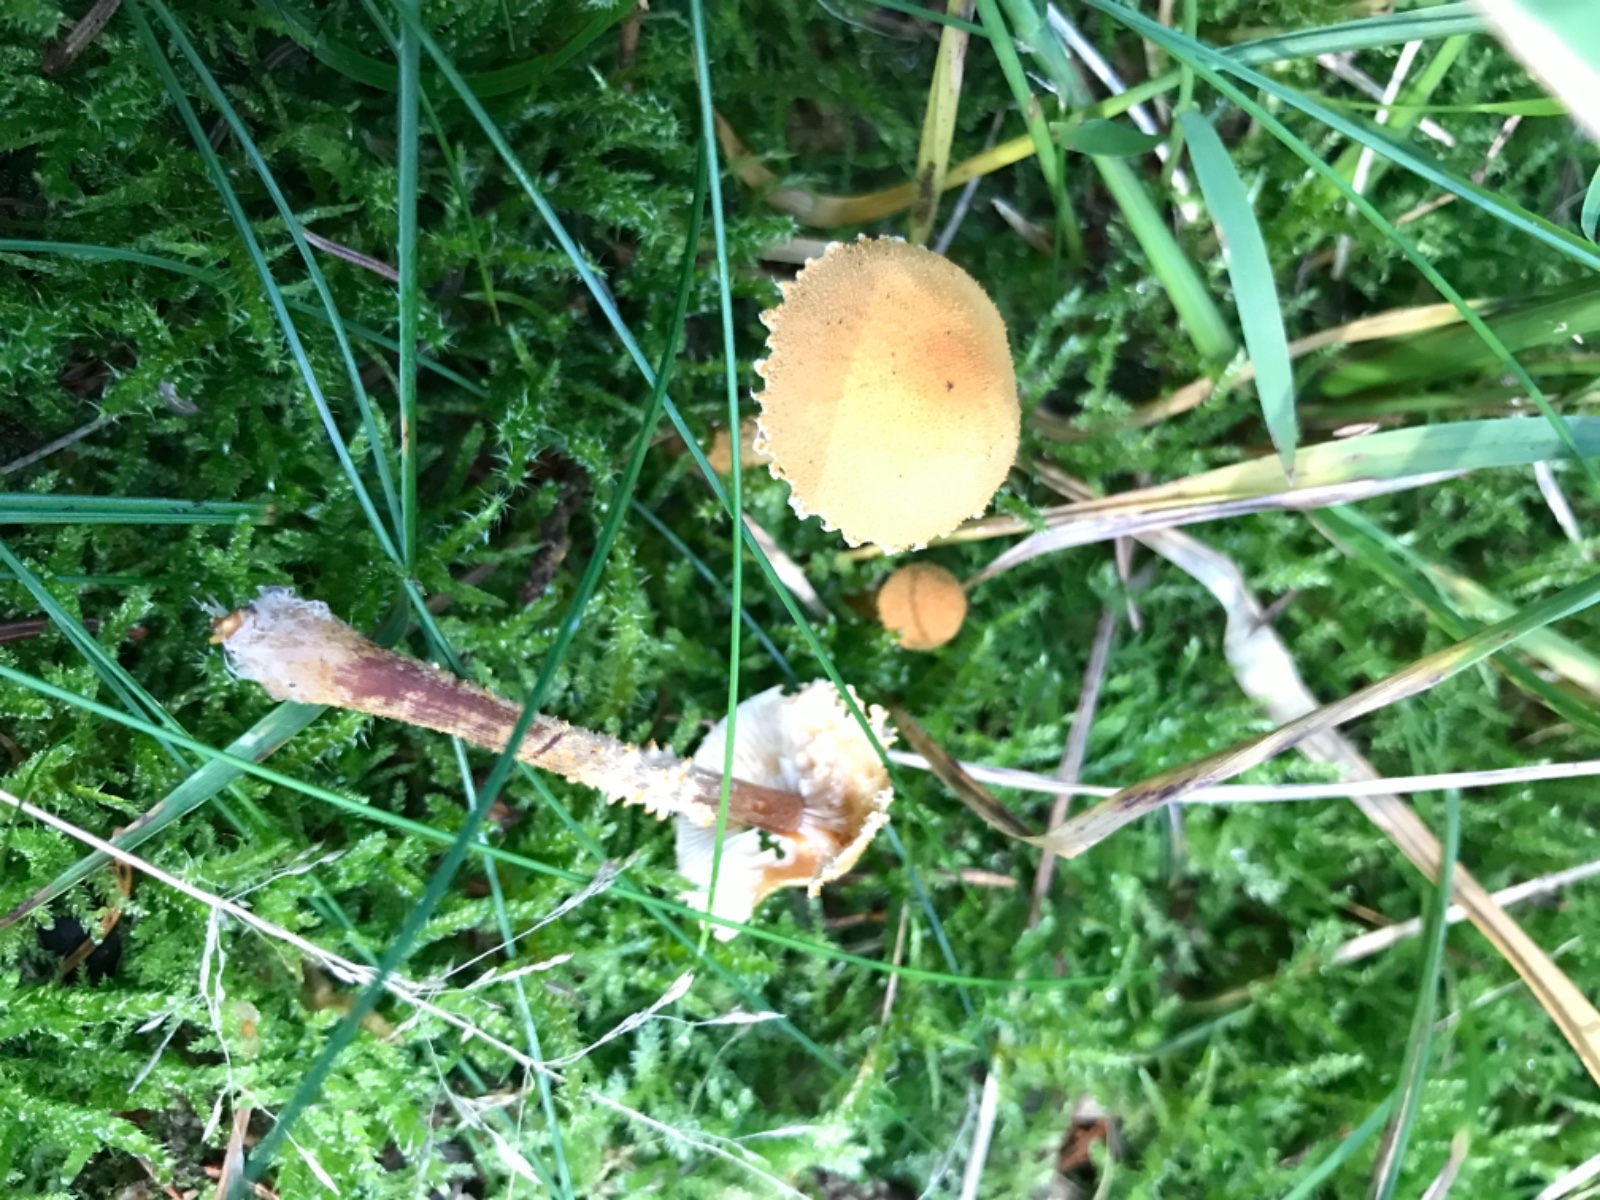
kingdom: Fungi
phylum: Basidiomycota
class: Agaricomycetes
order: Agaricales
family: Tricholomataceae
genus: Cystoderma
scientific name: Cystoderma amianthinum
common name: okkergul grynhat
